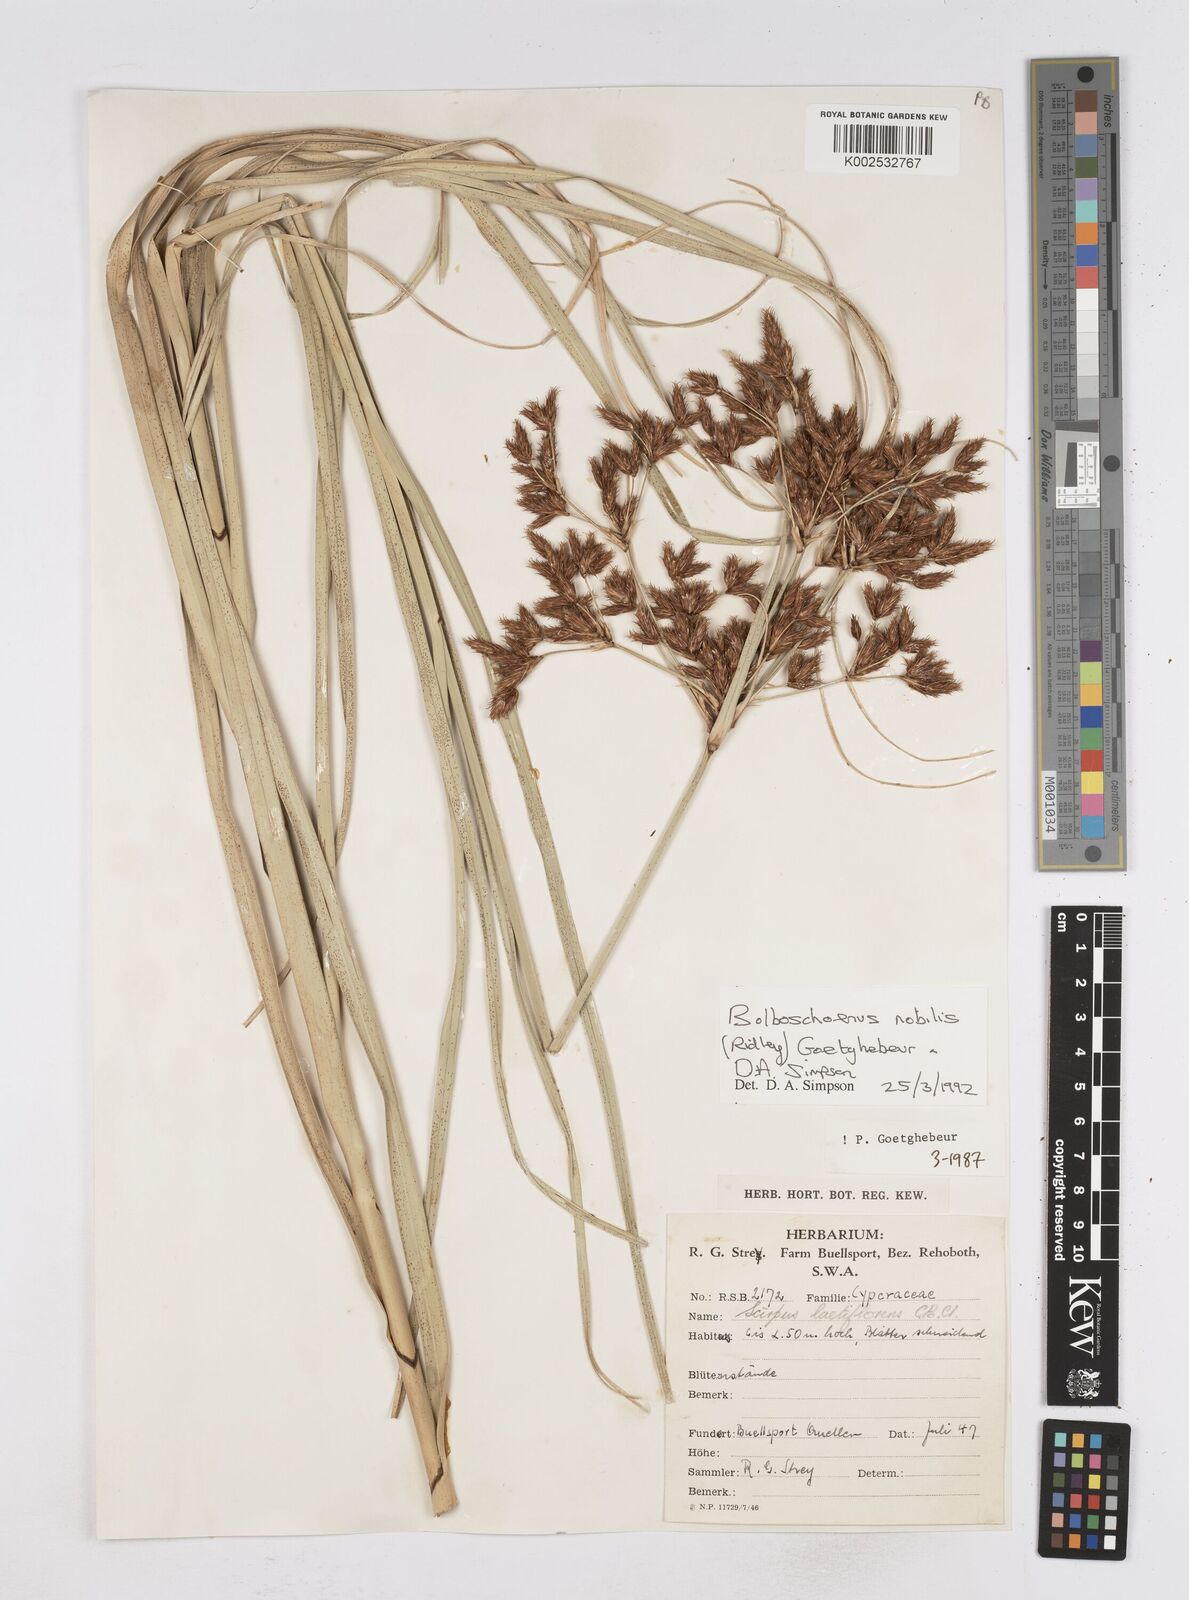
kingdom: Plantae
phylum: Tracheophyta
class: Liliopsida
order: Poales
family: Cyperaceae
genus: Bolboschoenus
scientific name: Bolboschoenus nobilis
